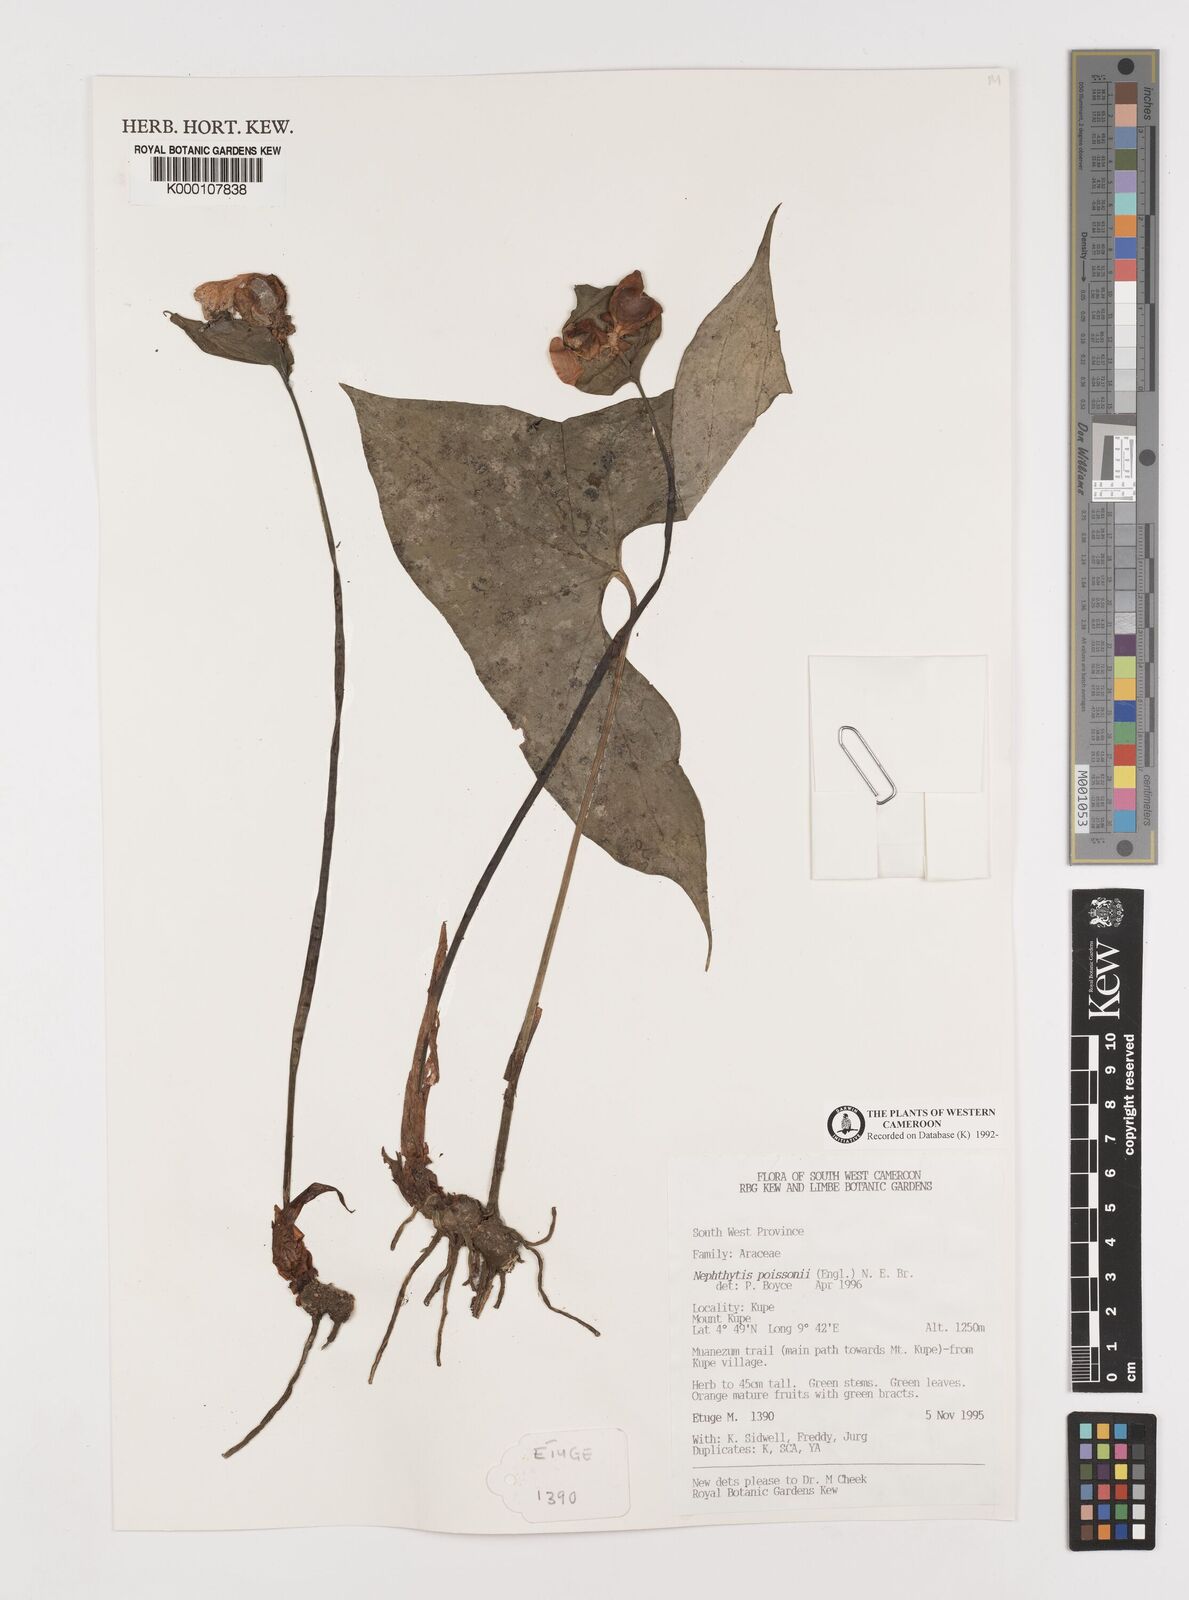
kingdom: Plantae
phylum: Tracheophyta
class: Liliopsida
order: Alismatales
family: Araceae
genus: Nephthytis
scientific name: Nephthytis poissonii
